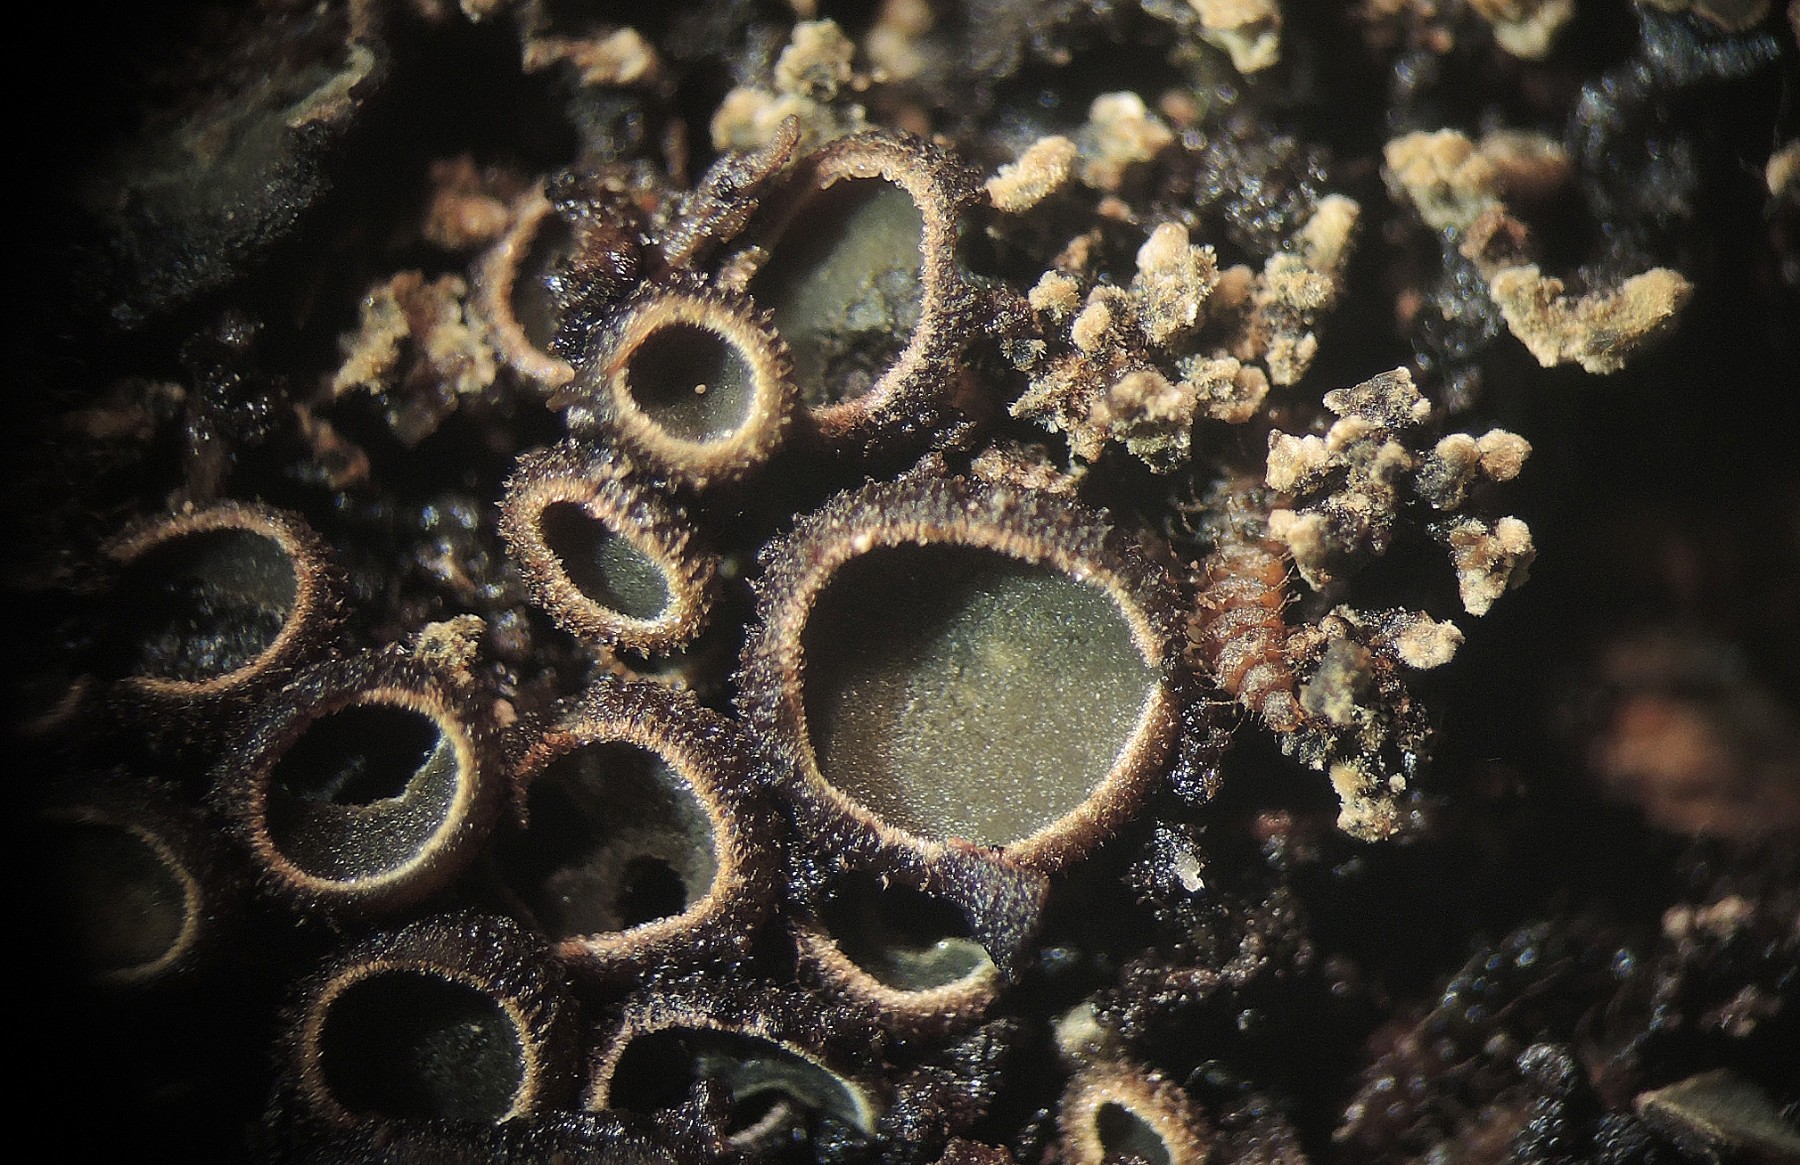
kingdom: Fungi
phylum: Ascomycota
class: Leotiomycetes
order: Helotiales
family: Cordieritidaceae
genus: Diplocarpa
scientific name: Diplocarpa bloxamii
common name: pragthårskive
